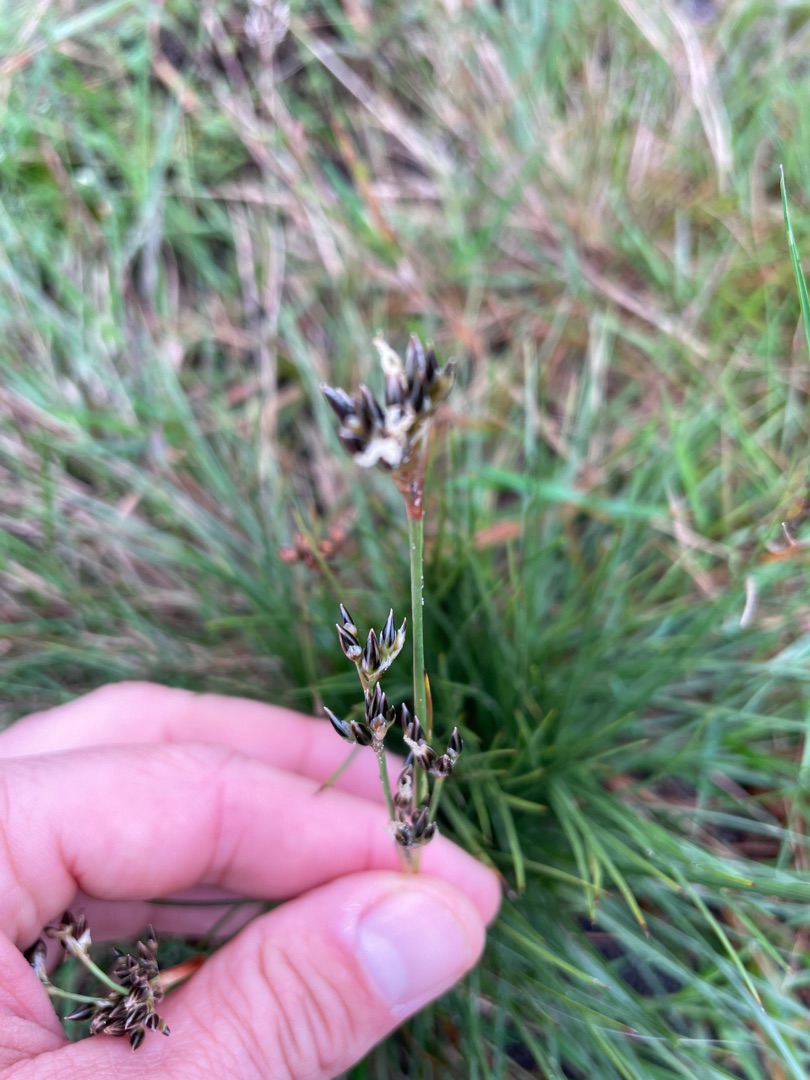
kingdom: Plantae
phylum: Tracheophyta
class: Liliopsida
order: Poales
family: Juncaceae
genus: Juncus
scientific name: Juncus squarrosus
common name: Børste-siv
